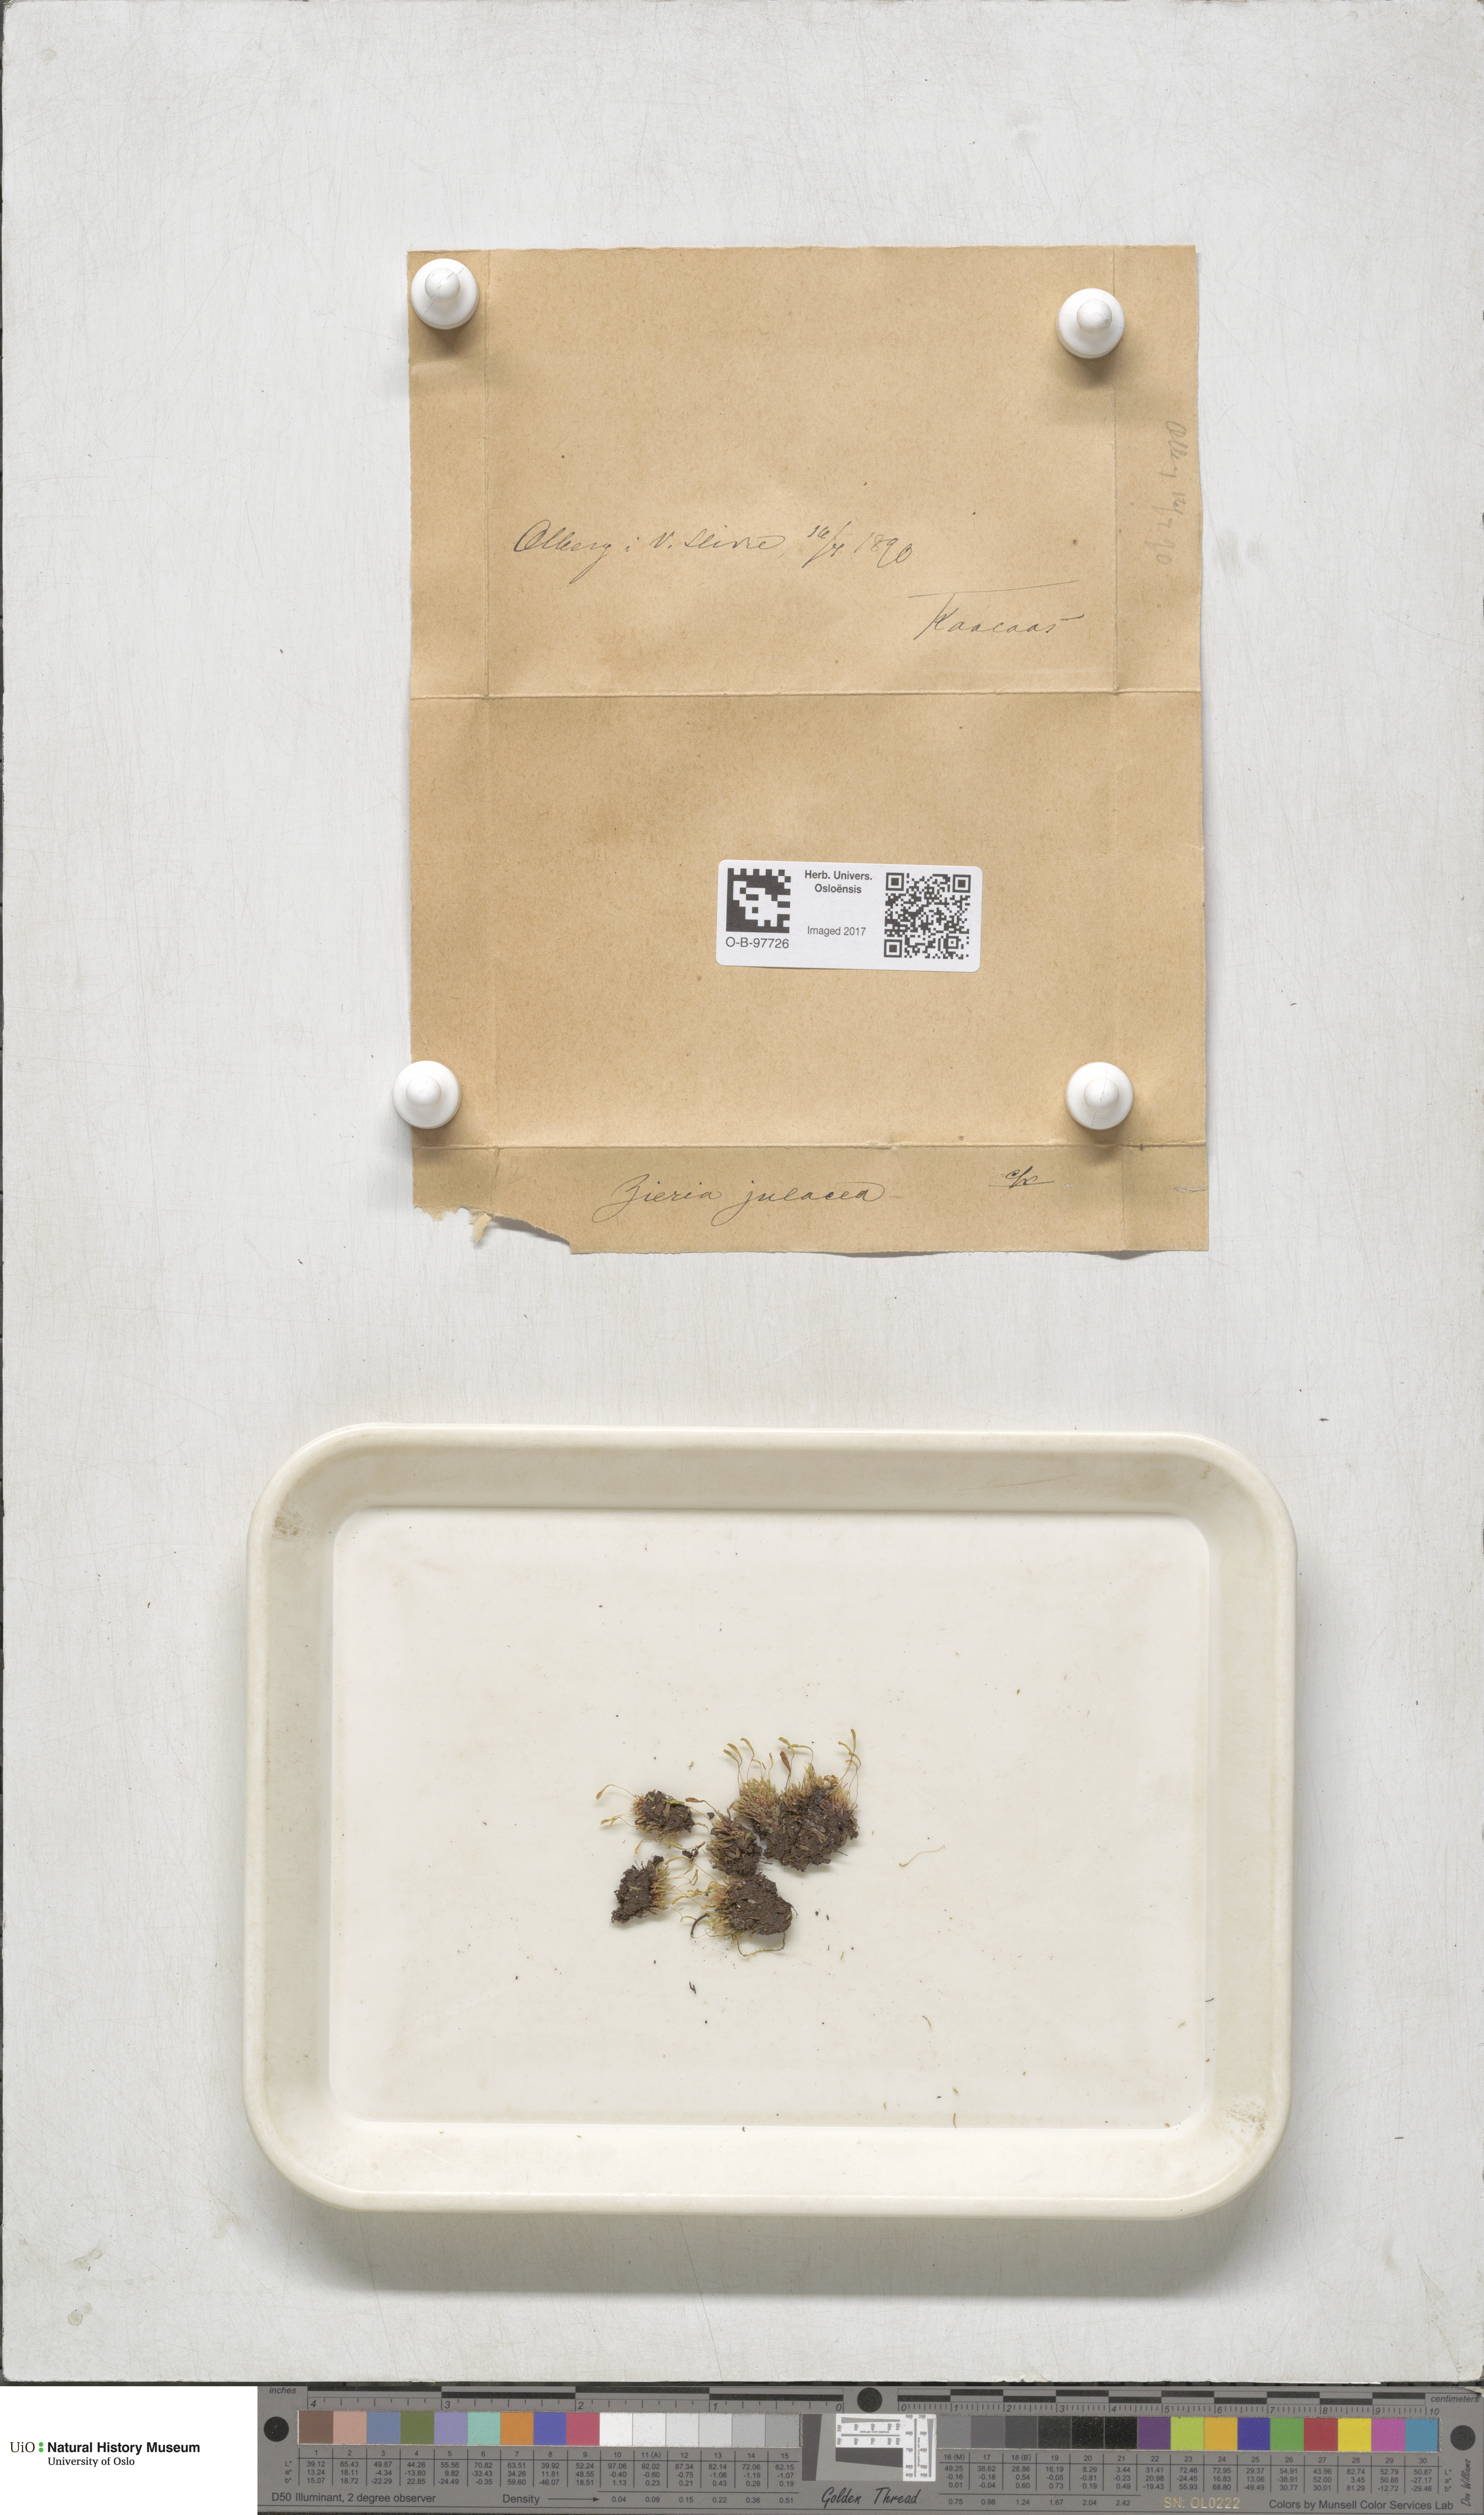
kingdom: Plantae
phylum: Bryophyta
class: Bryopsida
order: Bryales
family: Bryaceae
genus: Plagiobryum
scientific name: Plagiobryum zieri
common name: Zier's hump moss
